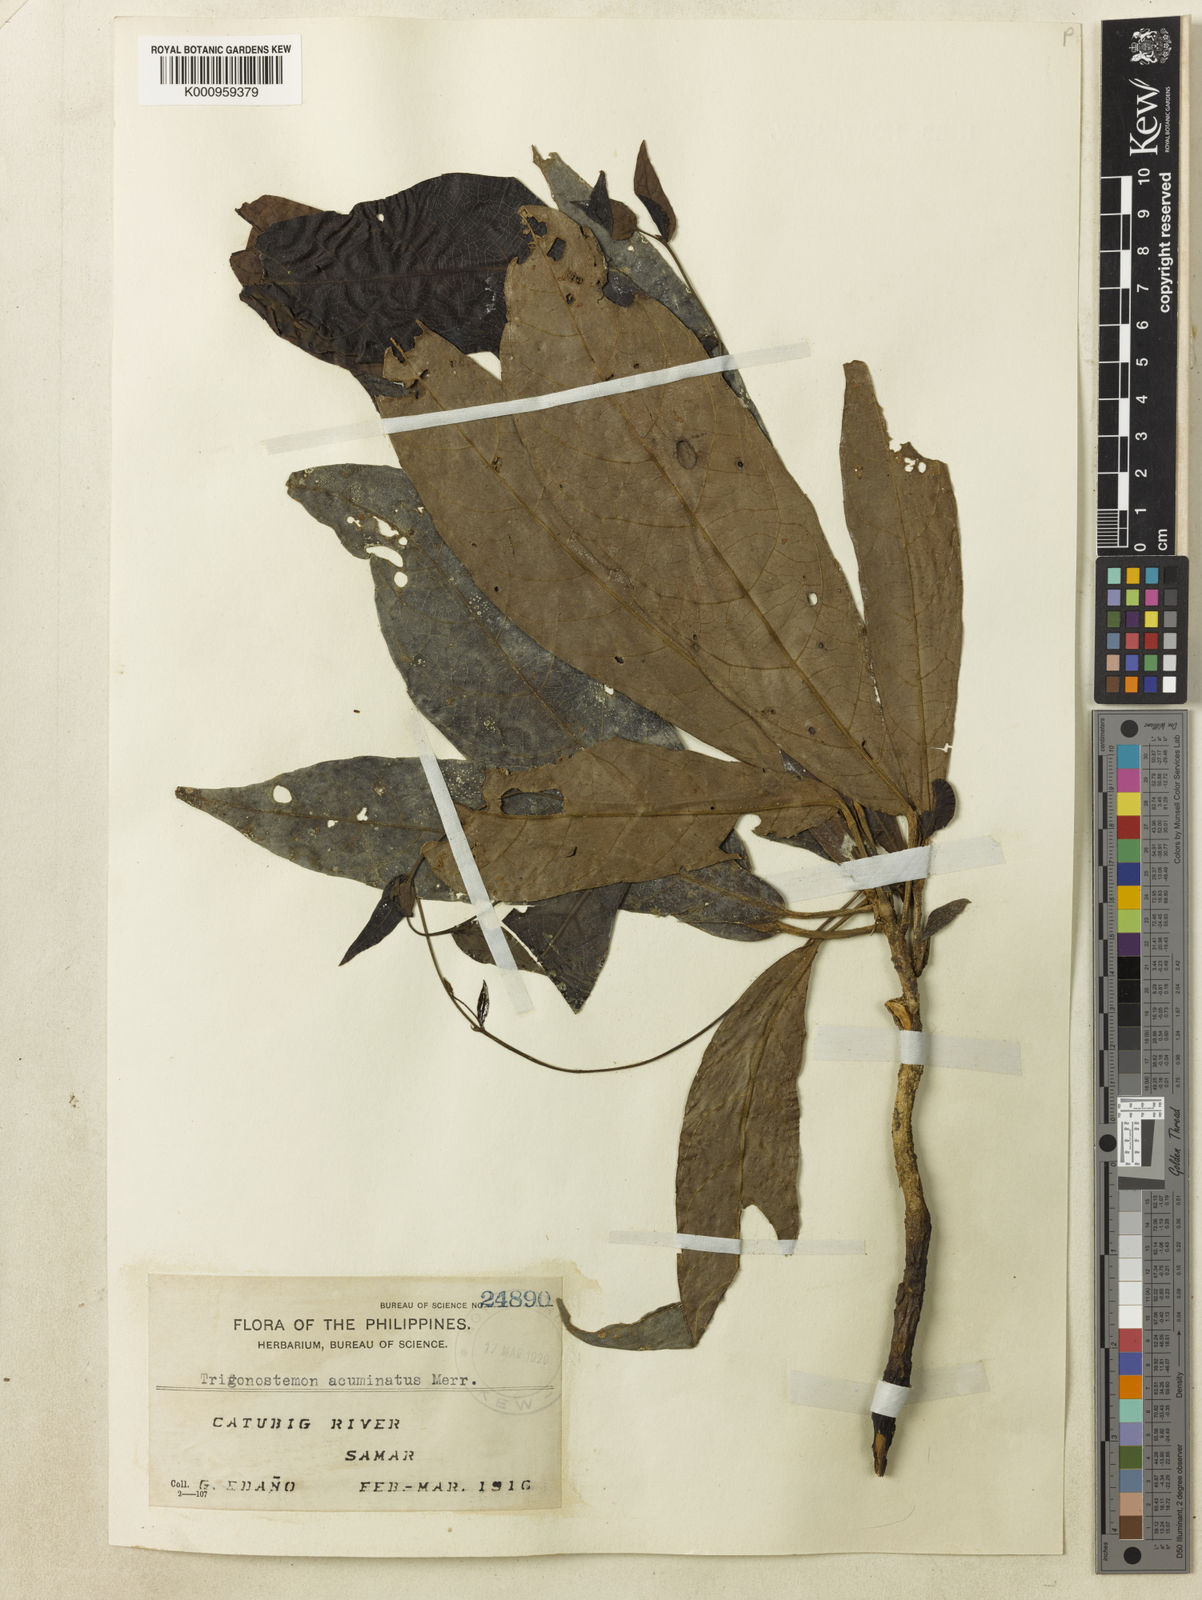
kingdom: Plantae
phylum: Tracheophyta
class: Magnoliopsida
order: Malpighiales
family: Euphorbiaceae
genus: Trigonostemon
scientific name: Trigonostemon villosus
